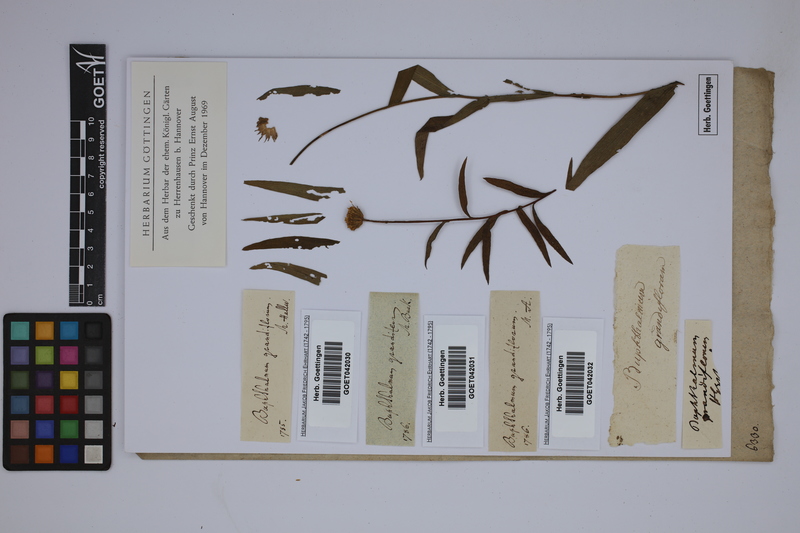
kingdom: Plantae
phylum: Tracheophyta
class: Magnoliopsida
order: Asterales
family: Asteraceae
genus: Buphthalmum
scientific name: Buphthalmum salicifolium
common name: Willow-leaved yellow-oxeye
